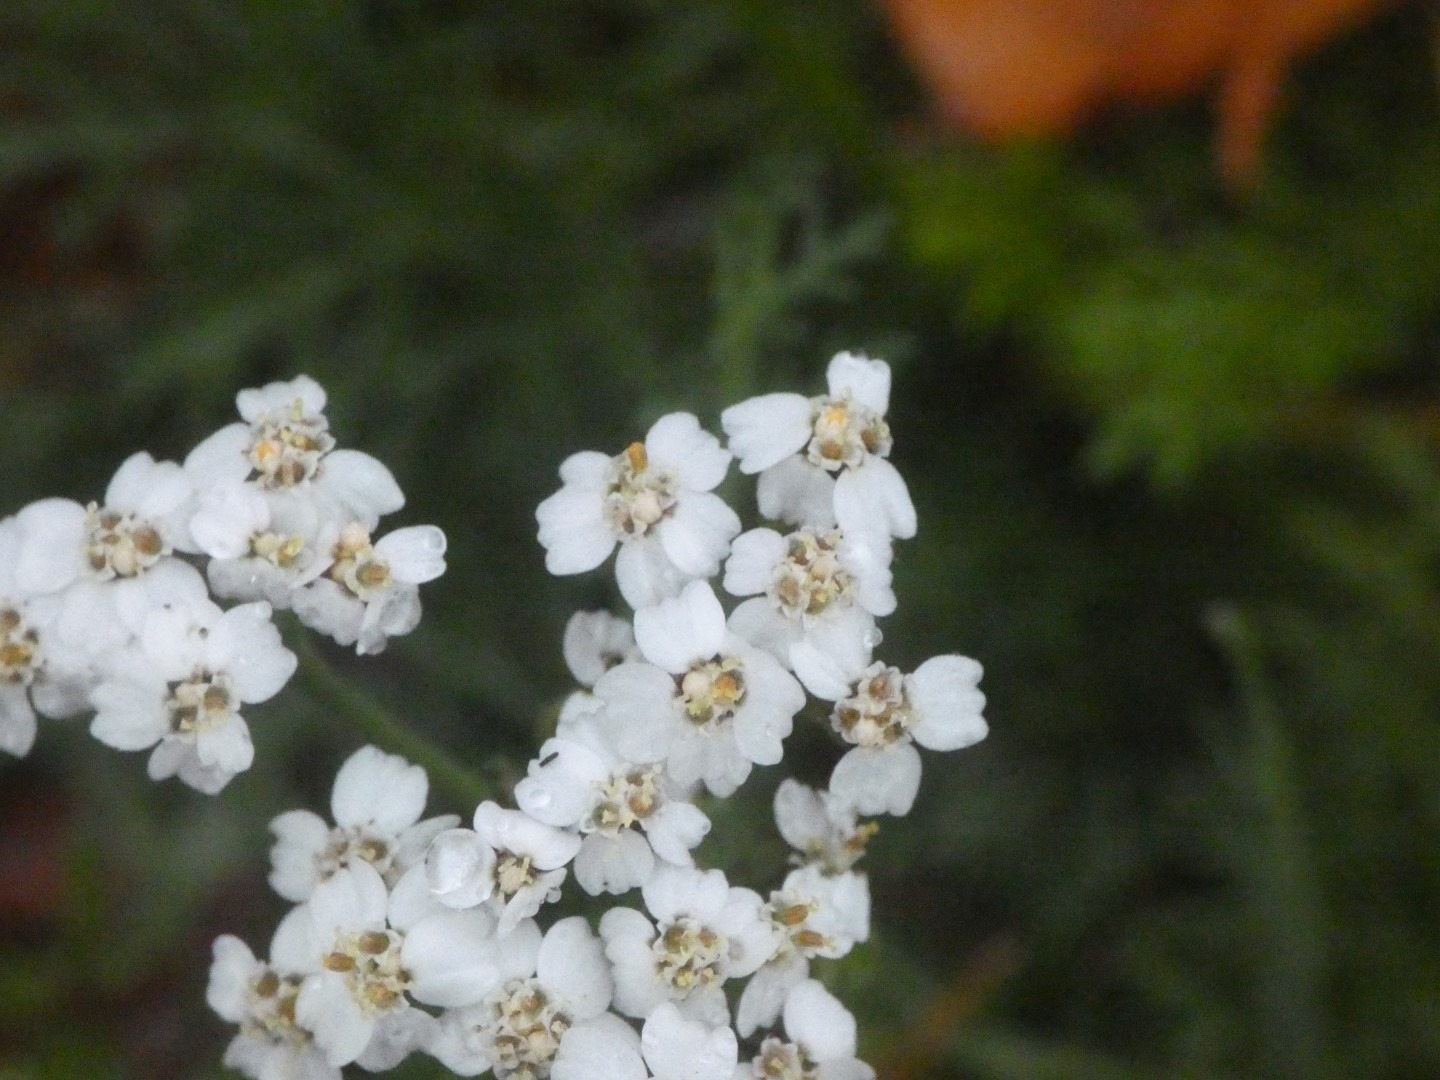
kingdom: Plantae
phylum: Tracheophyta
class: Magnoliopsida
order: Asterales
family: Asteraceae
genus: Achillea
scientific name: Achillea millefolium
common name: Almindelig røllike
